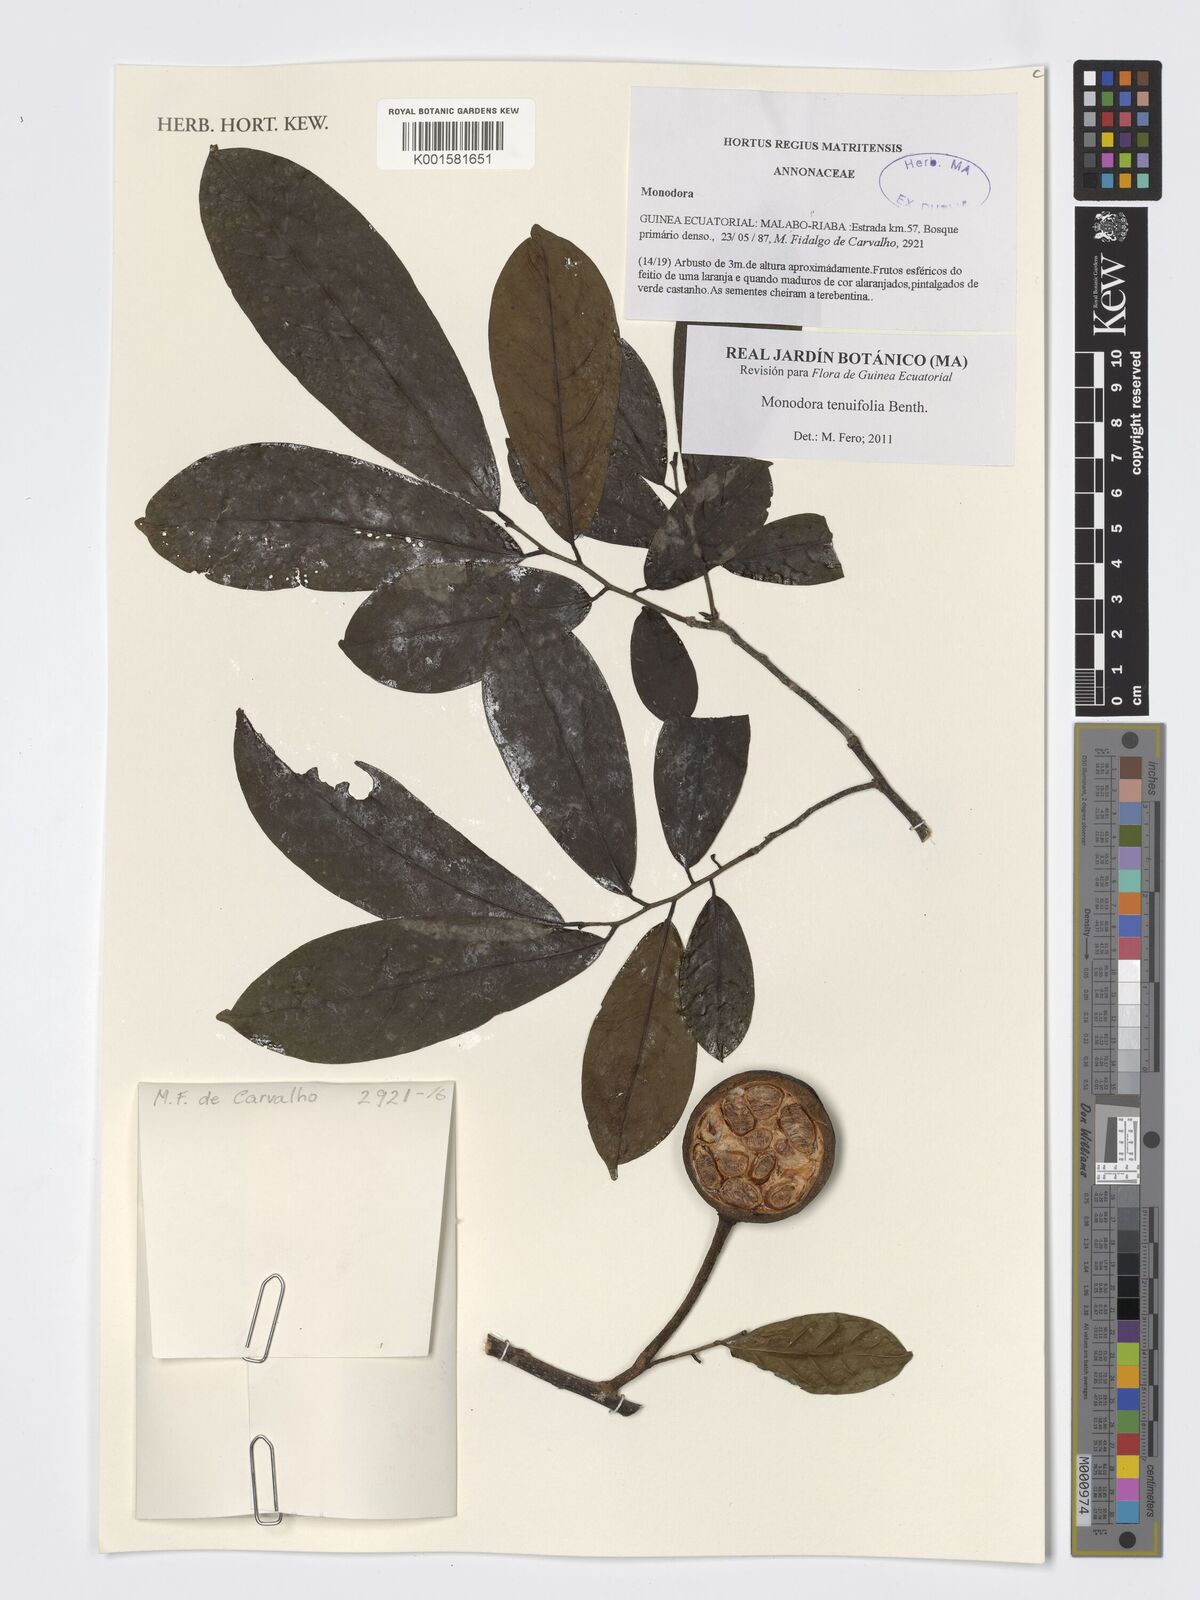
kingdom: Plantae
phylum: Tracheophyta
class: Magnoliopsida
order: Magnoliales
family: Annonaceae
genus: Monodora
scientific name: Monodora tenuifolia
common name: Orchidtree
